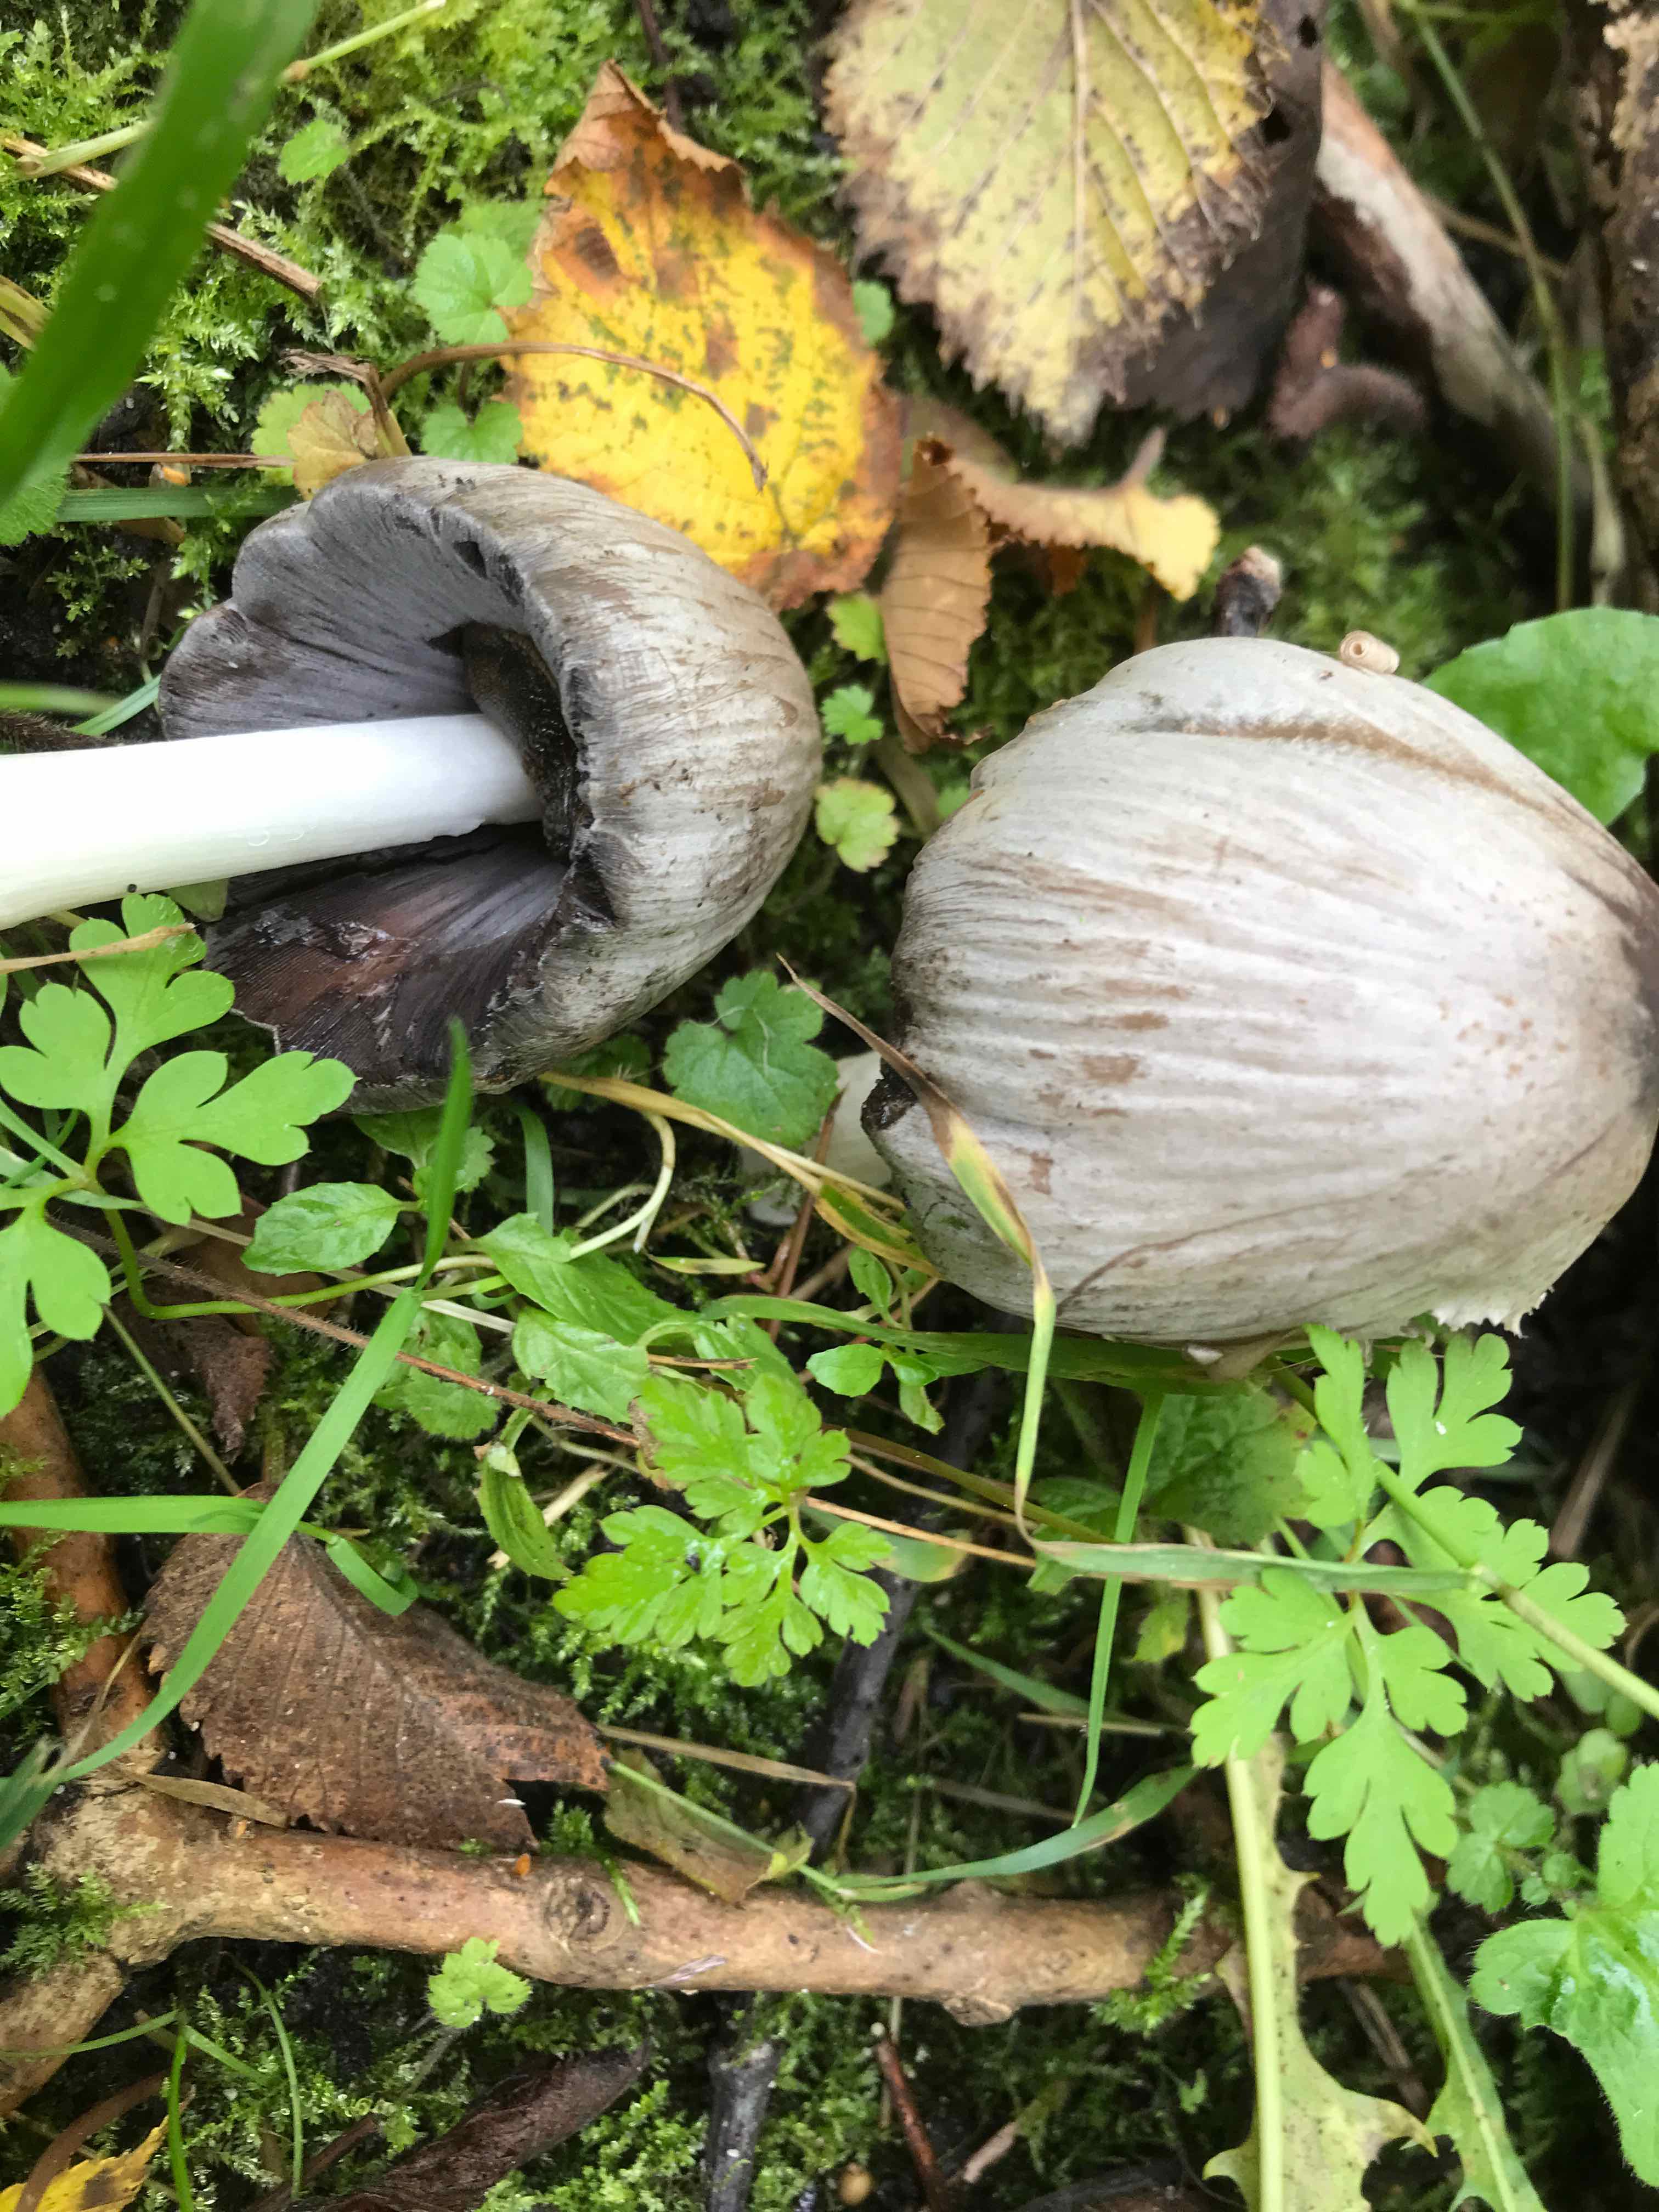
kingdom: Fungi
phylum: Basidiomycota
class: Agaricomycetes
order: Agaricales
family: Psathyrellaceae
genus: Coprinopsis
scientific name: Coprinopsis atramentaria
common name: almindelig blækhat
